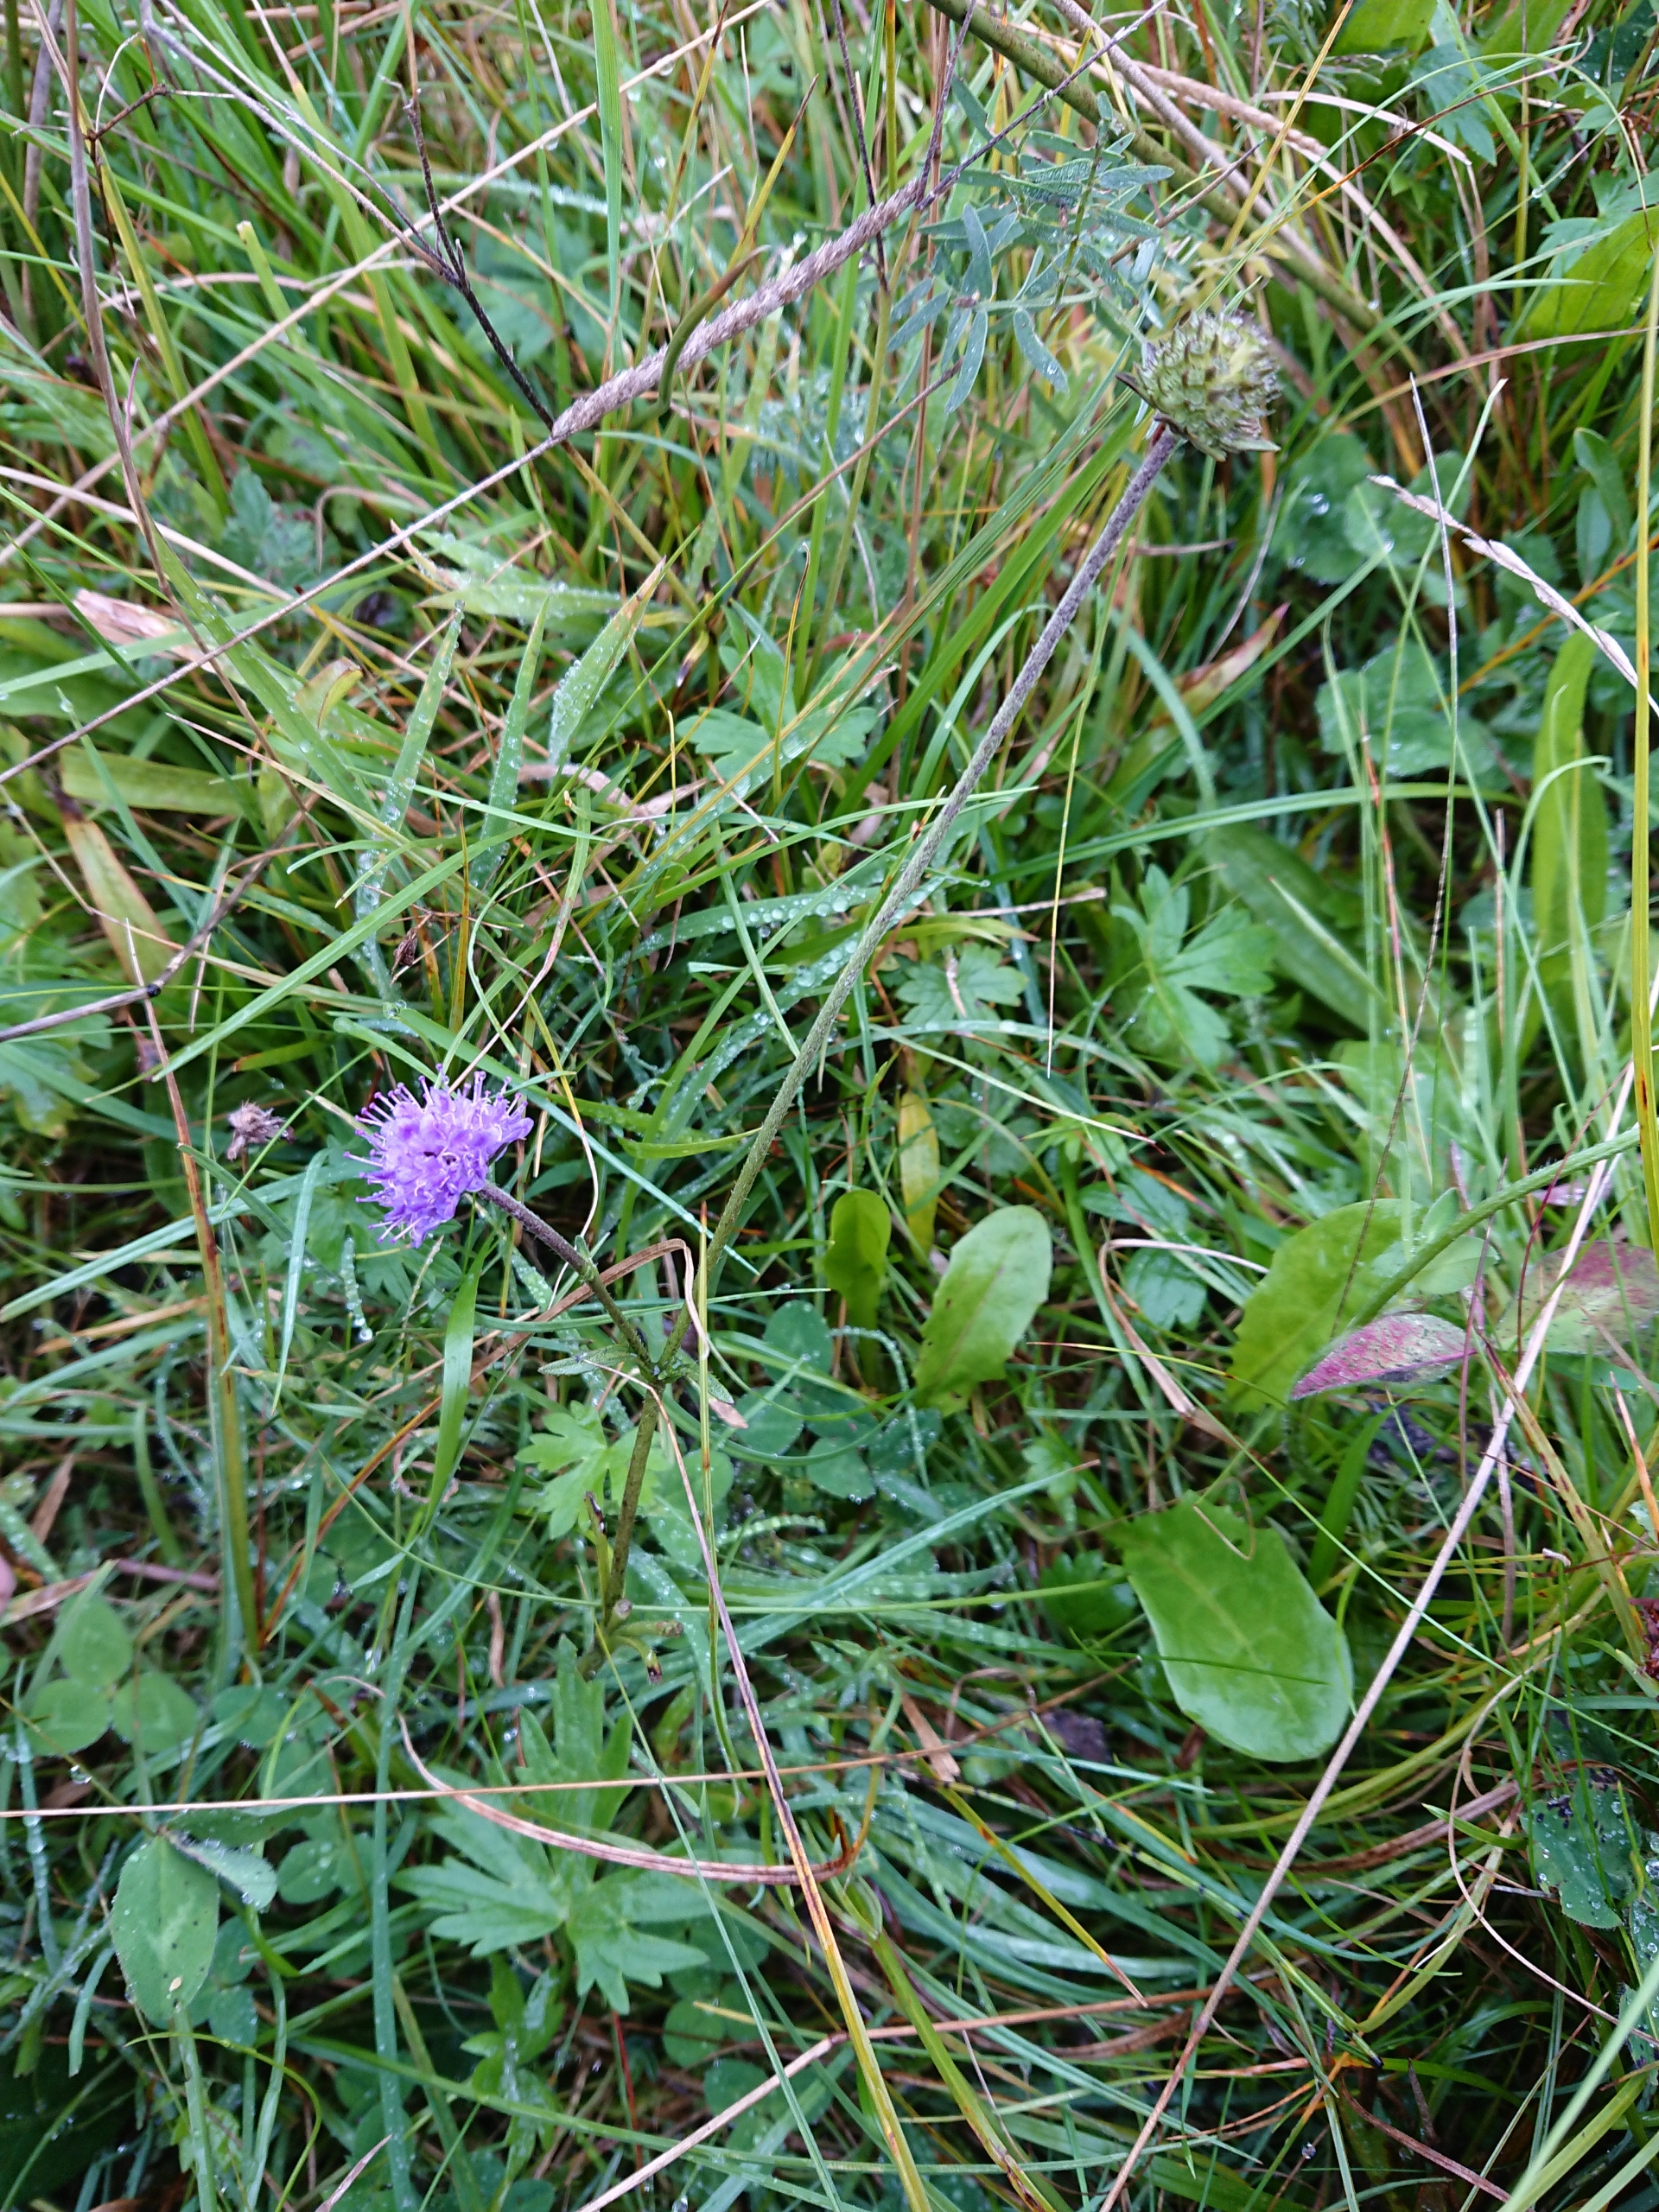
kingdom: Plantae
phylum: Tracheophyta
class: Magnoliopsida
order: Dipsacales
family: Caprifoliaceae
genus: Succisa
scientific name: Succisa pratensis
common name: Djævelsbid
